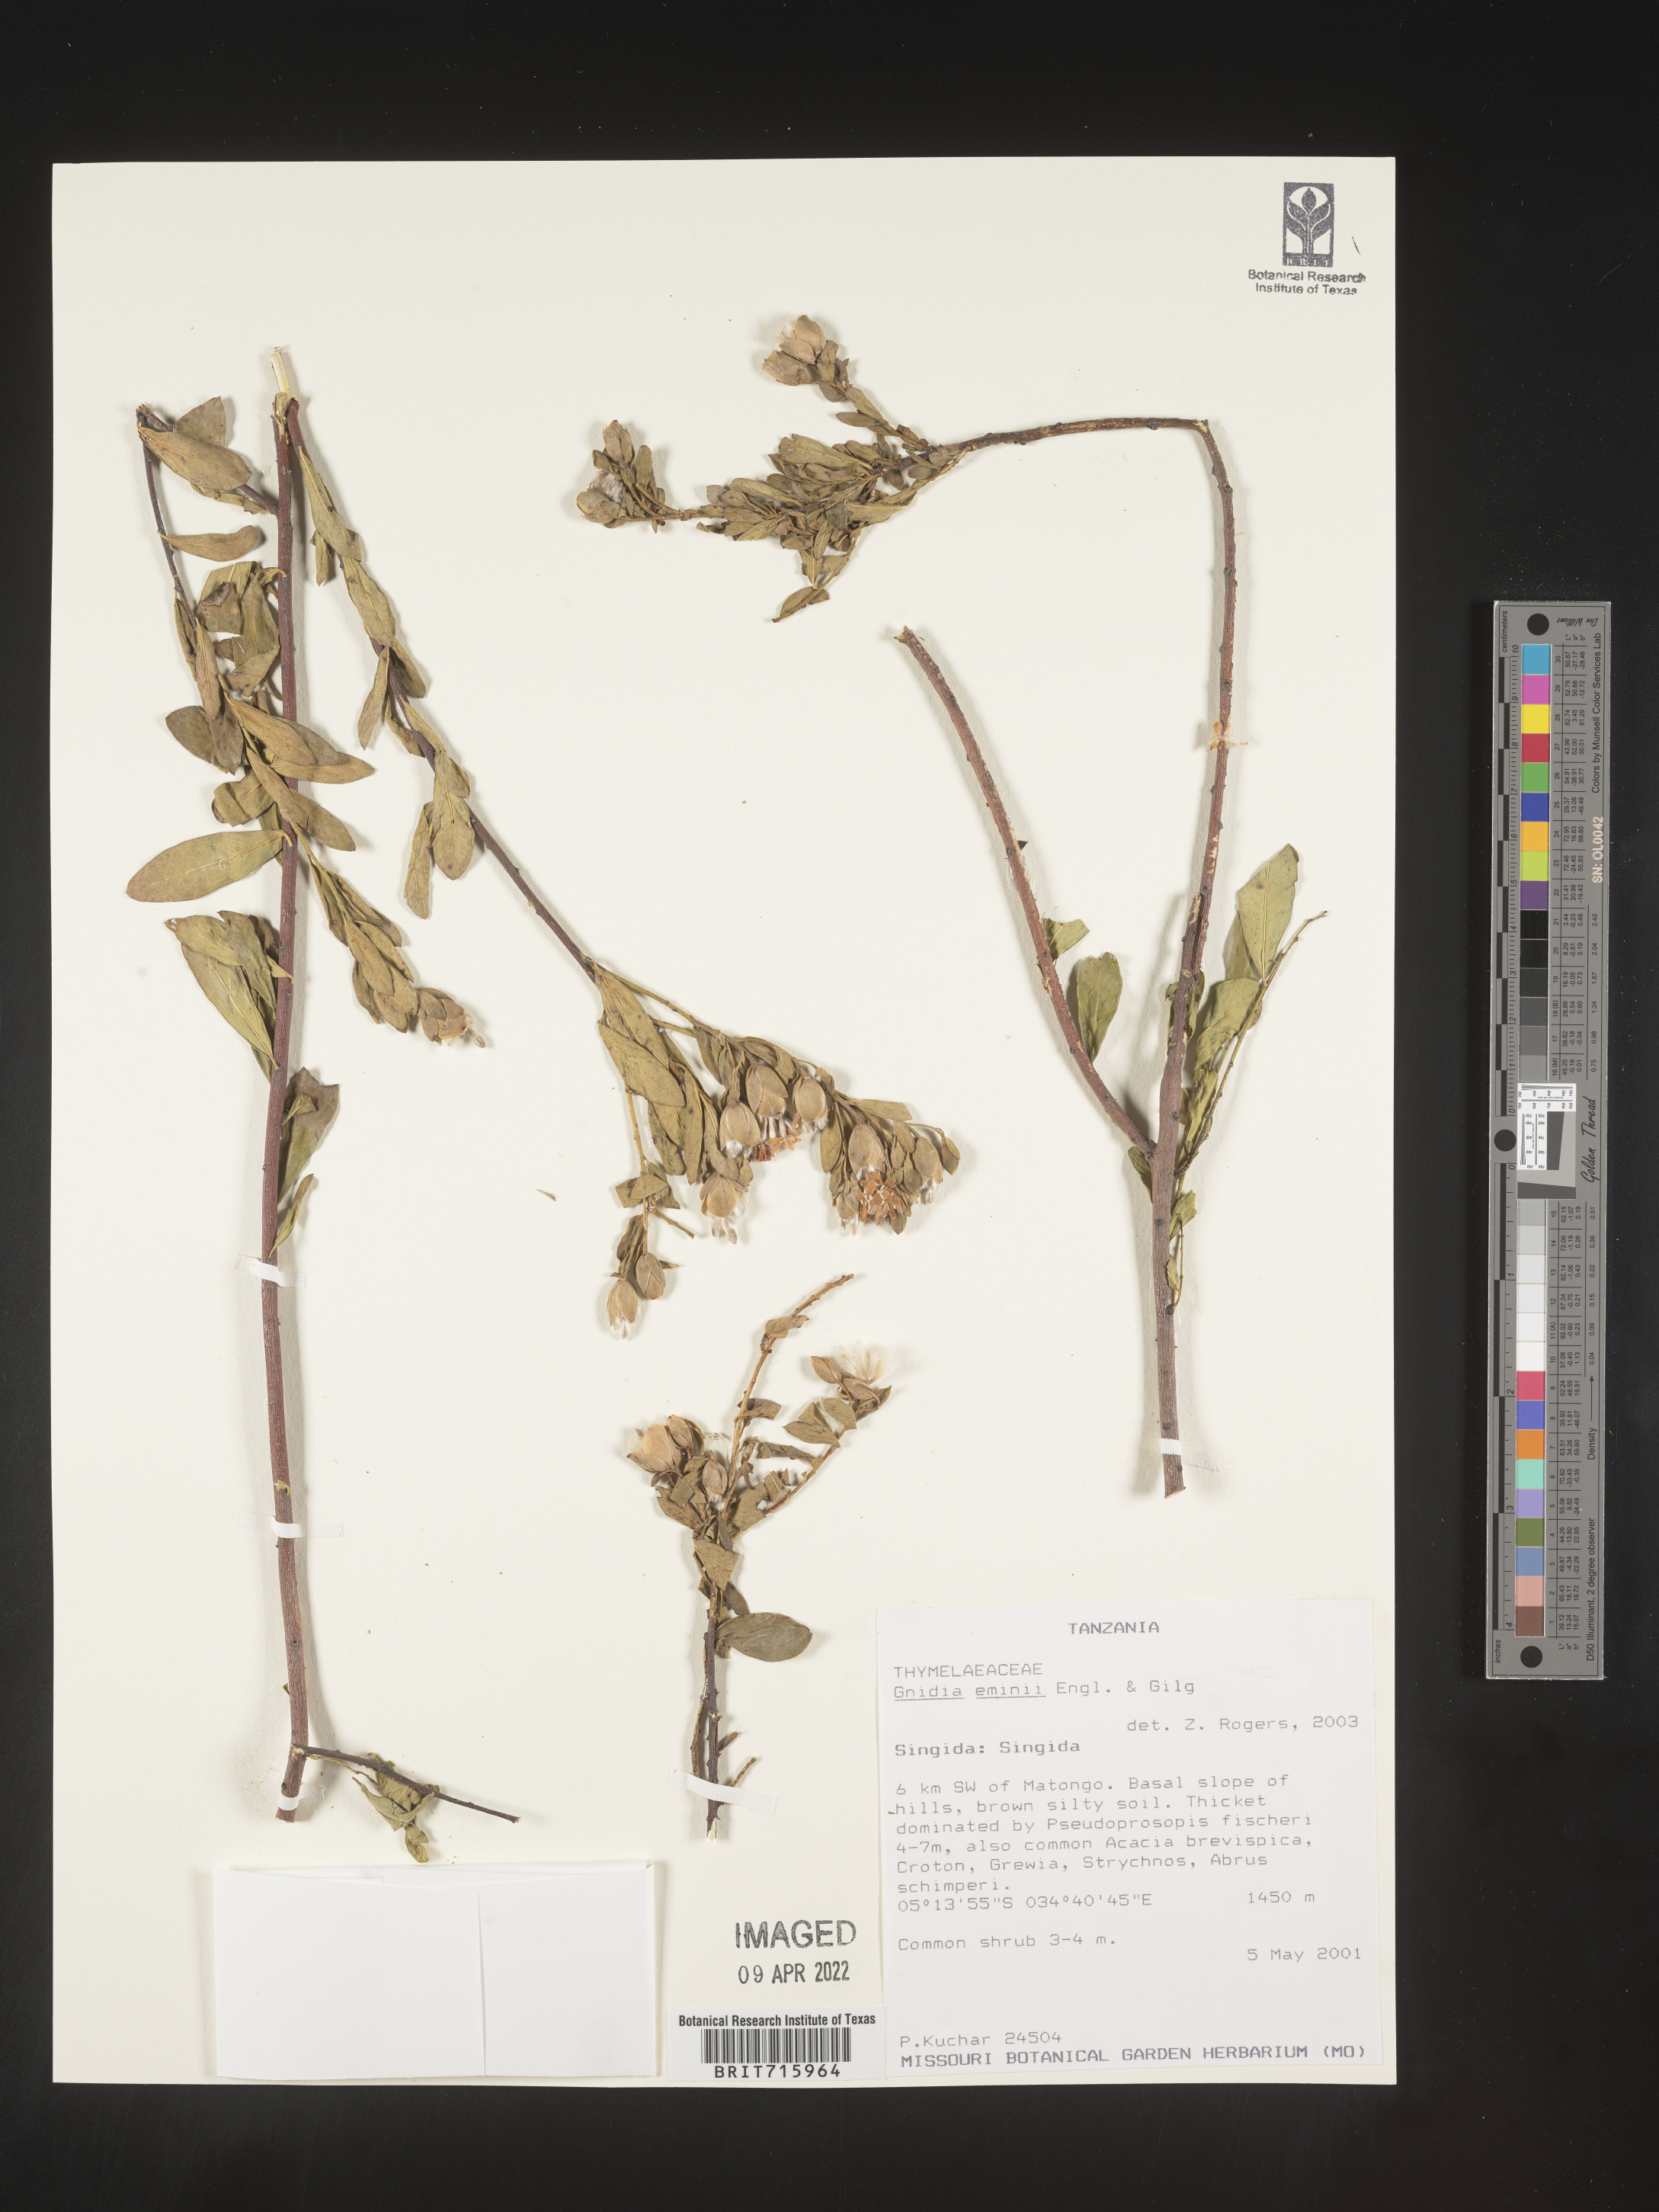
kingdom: Plantae
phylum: Tracheophyta
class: Magnoliopsida
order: Malvales
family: Thymelaeaceae
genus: Gnidia
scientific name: Gnidia
